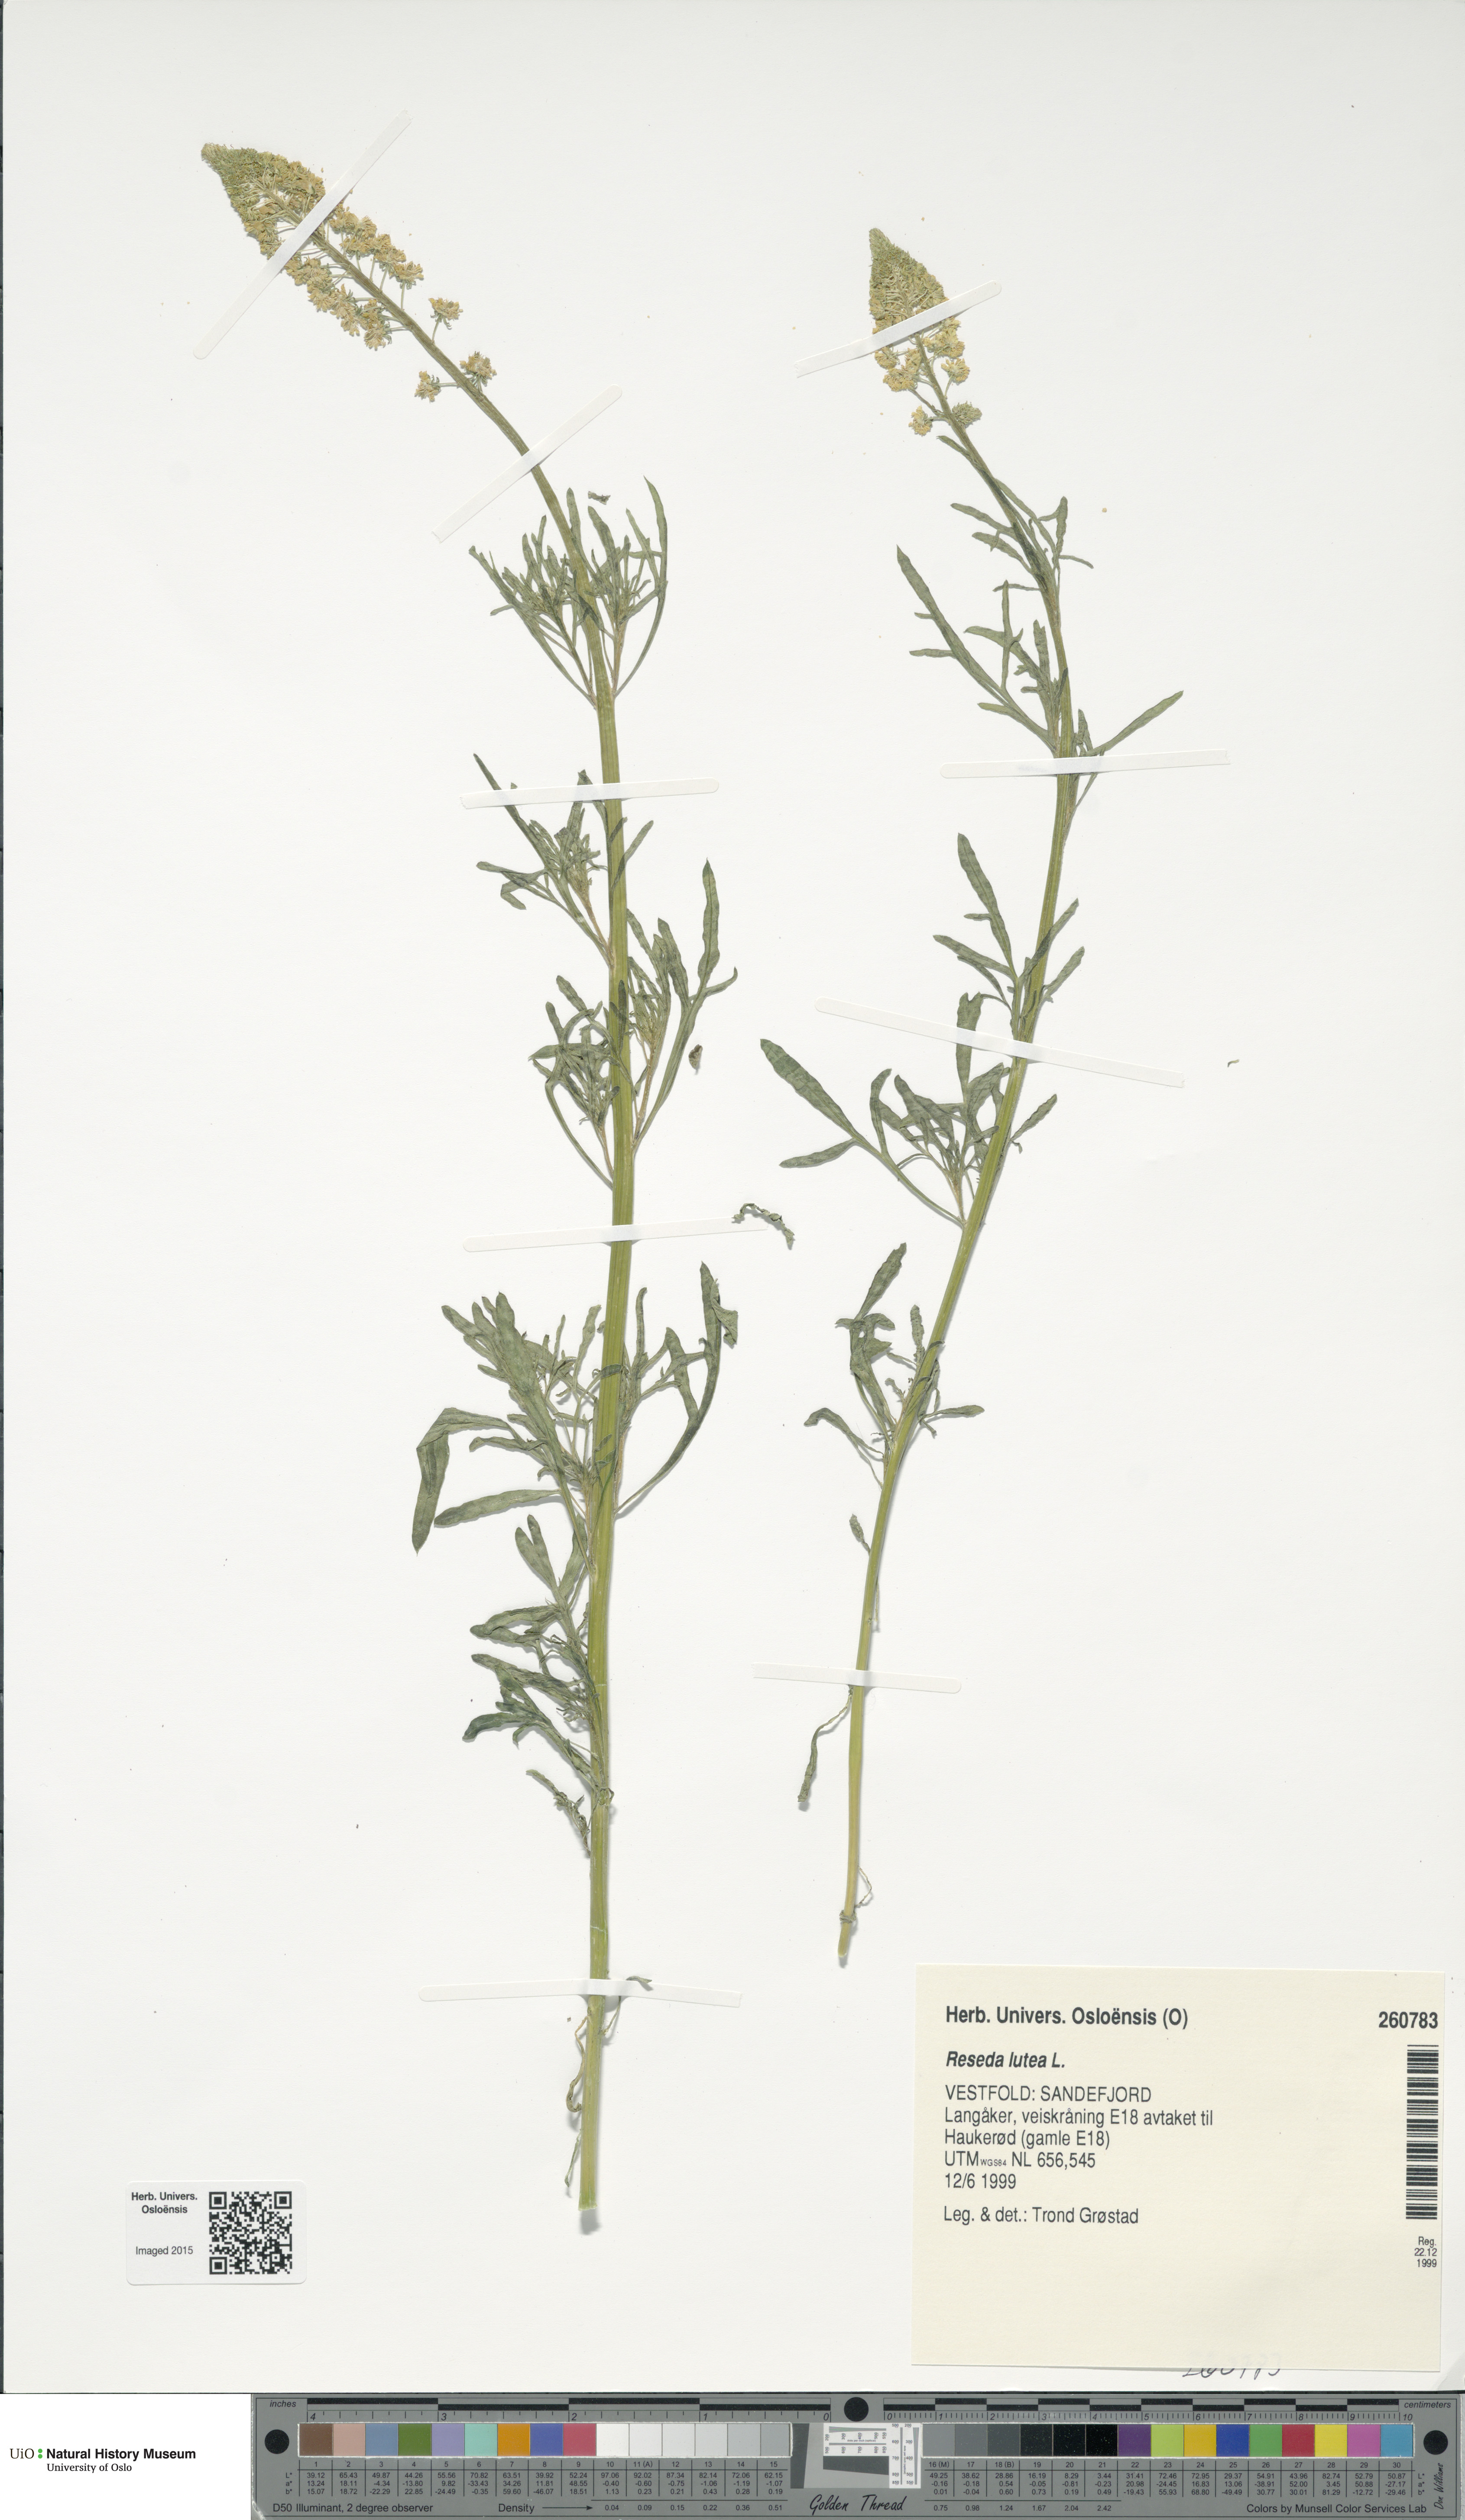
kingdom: Plantae
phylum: Tracheophyta
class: Magnoliopsida
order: Brassicales
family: Resedaceae
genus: Reseda
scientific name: Reseda lutea
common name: Wild mignonette
